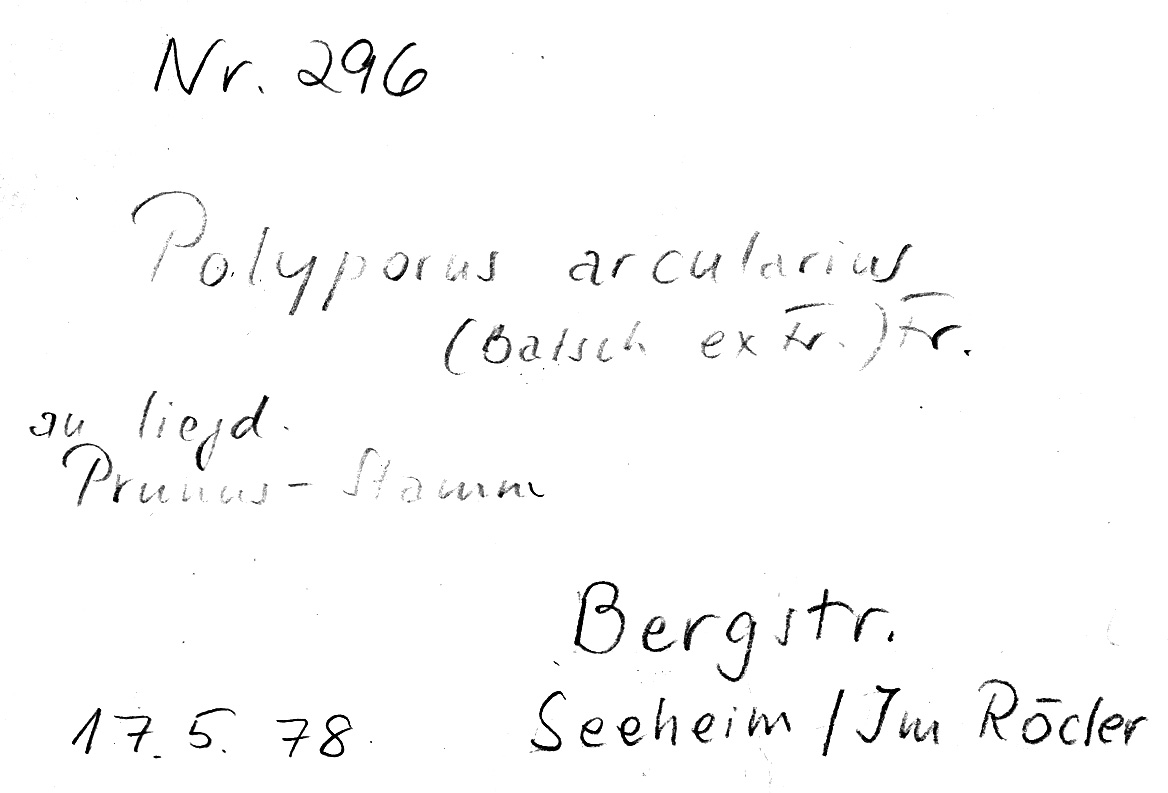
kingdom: Fungi
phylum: Basidiomycota
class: Agaricomycetes
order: Polyporales
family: Polyporaceae
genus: Lentinus
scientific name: Lentinus arcularius
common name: Spring polypore
